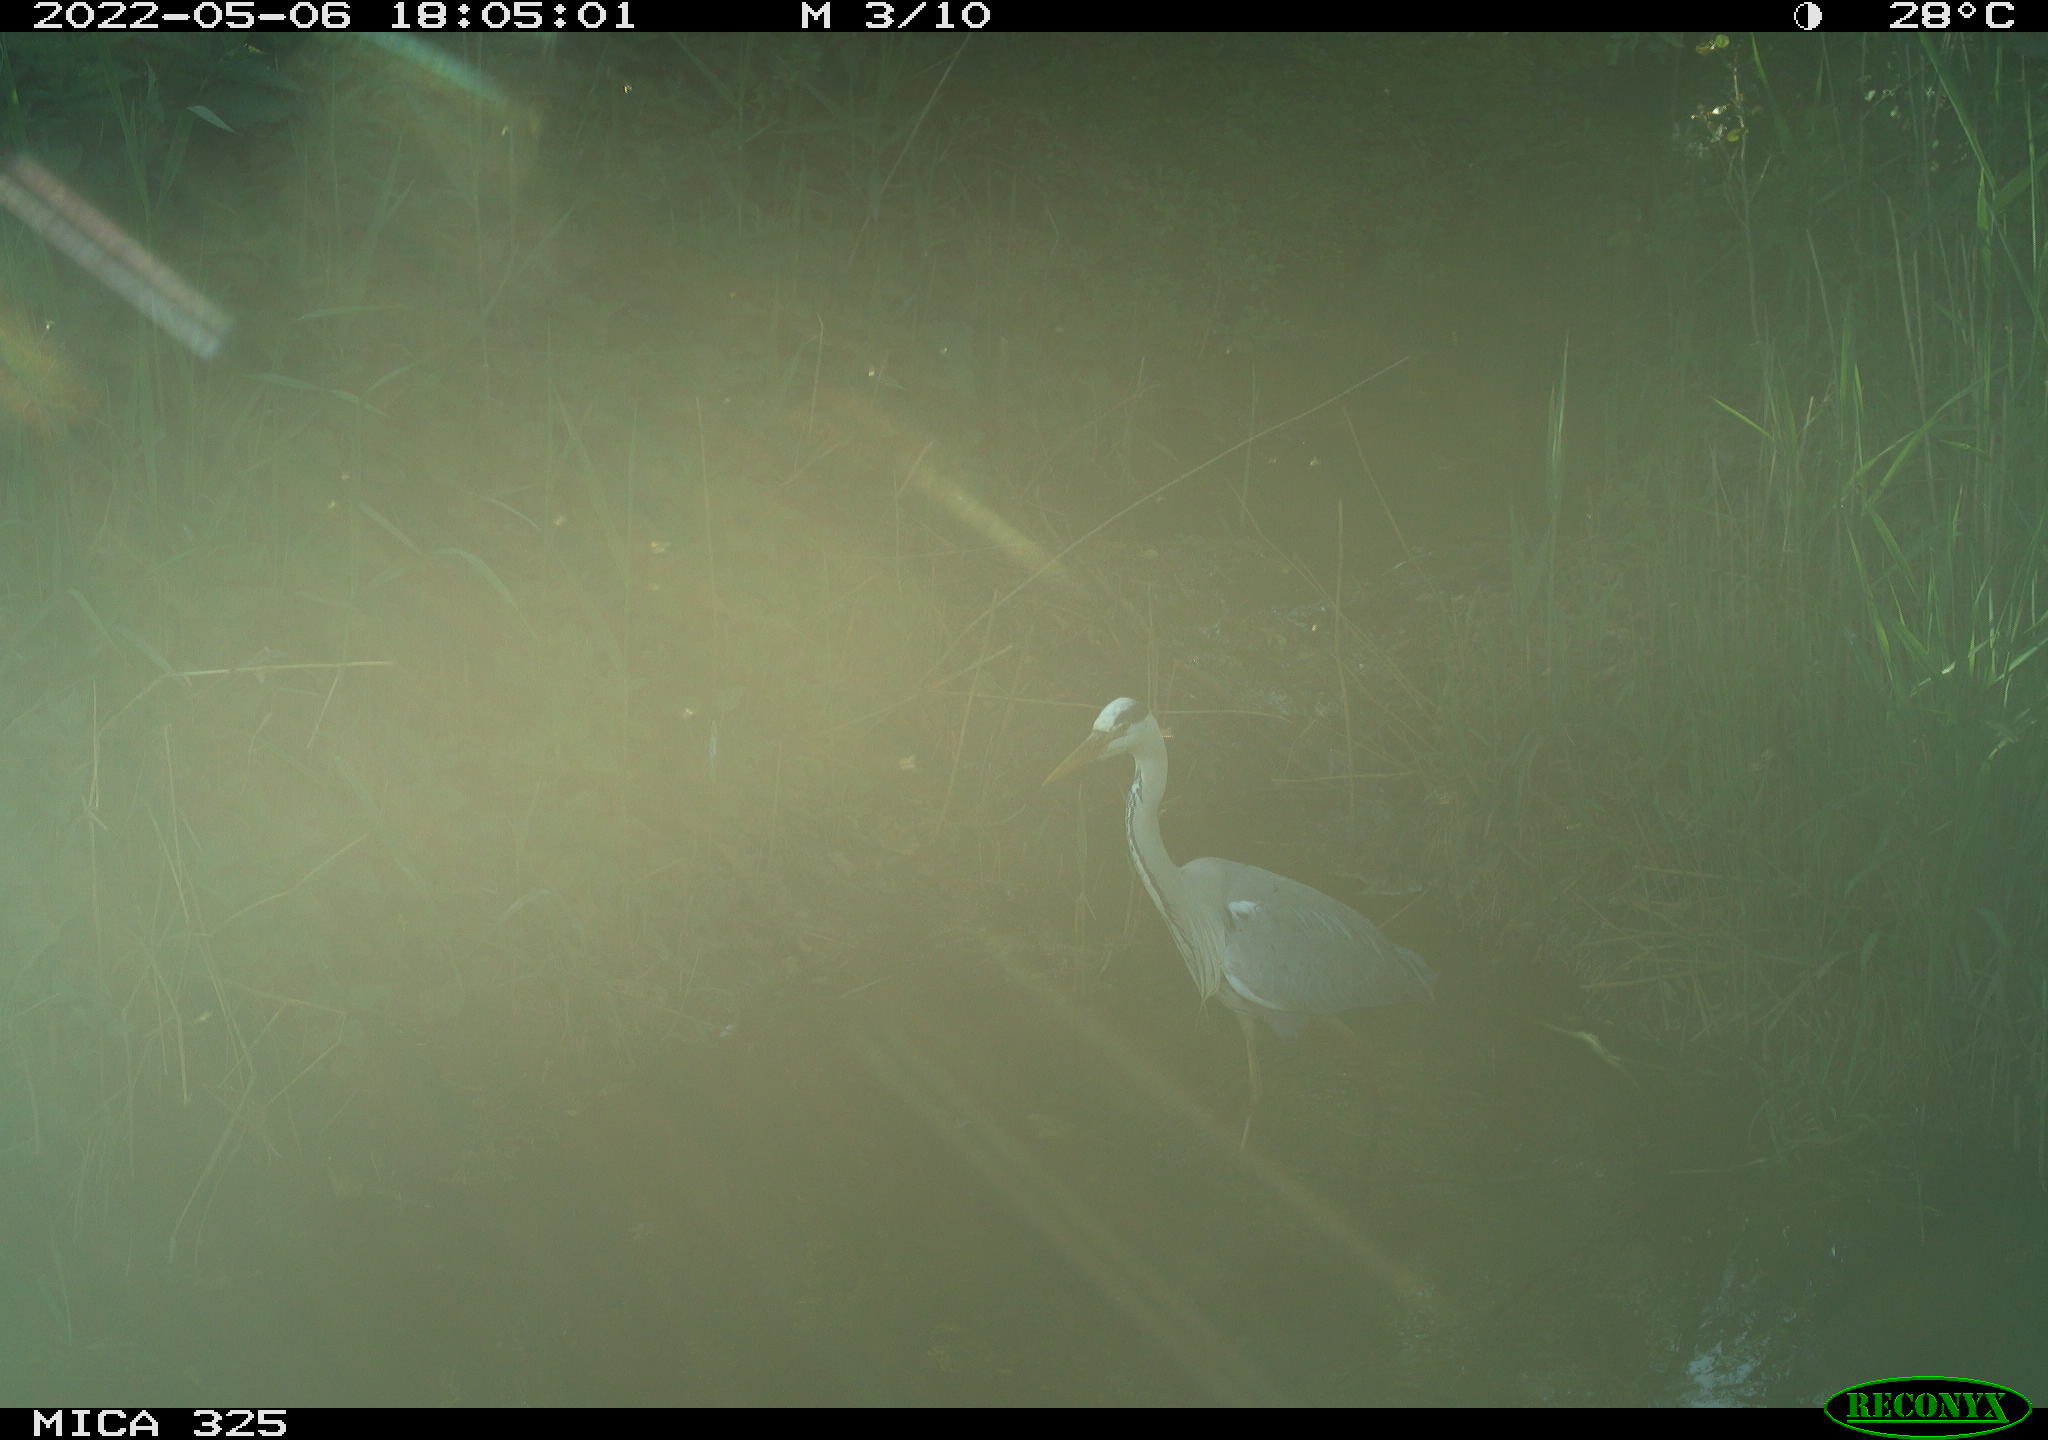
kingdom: Animalia
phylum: Chordata
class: Aves
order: Pelecaniformes
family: Ardeidae
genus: Ardea
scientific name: Ardea
